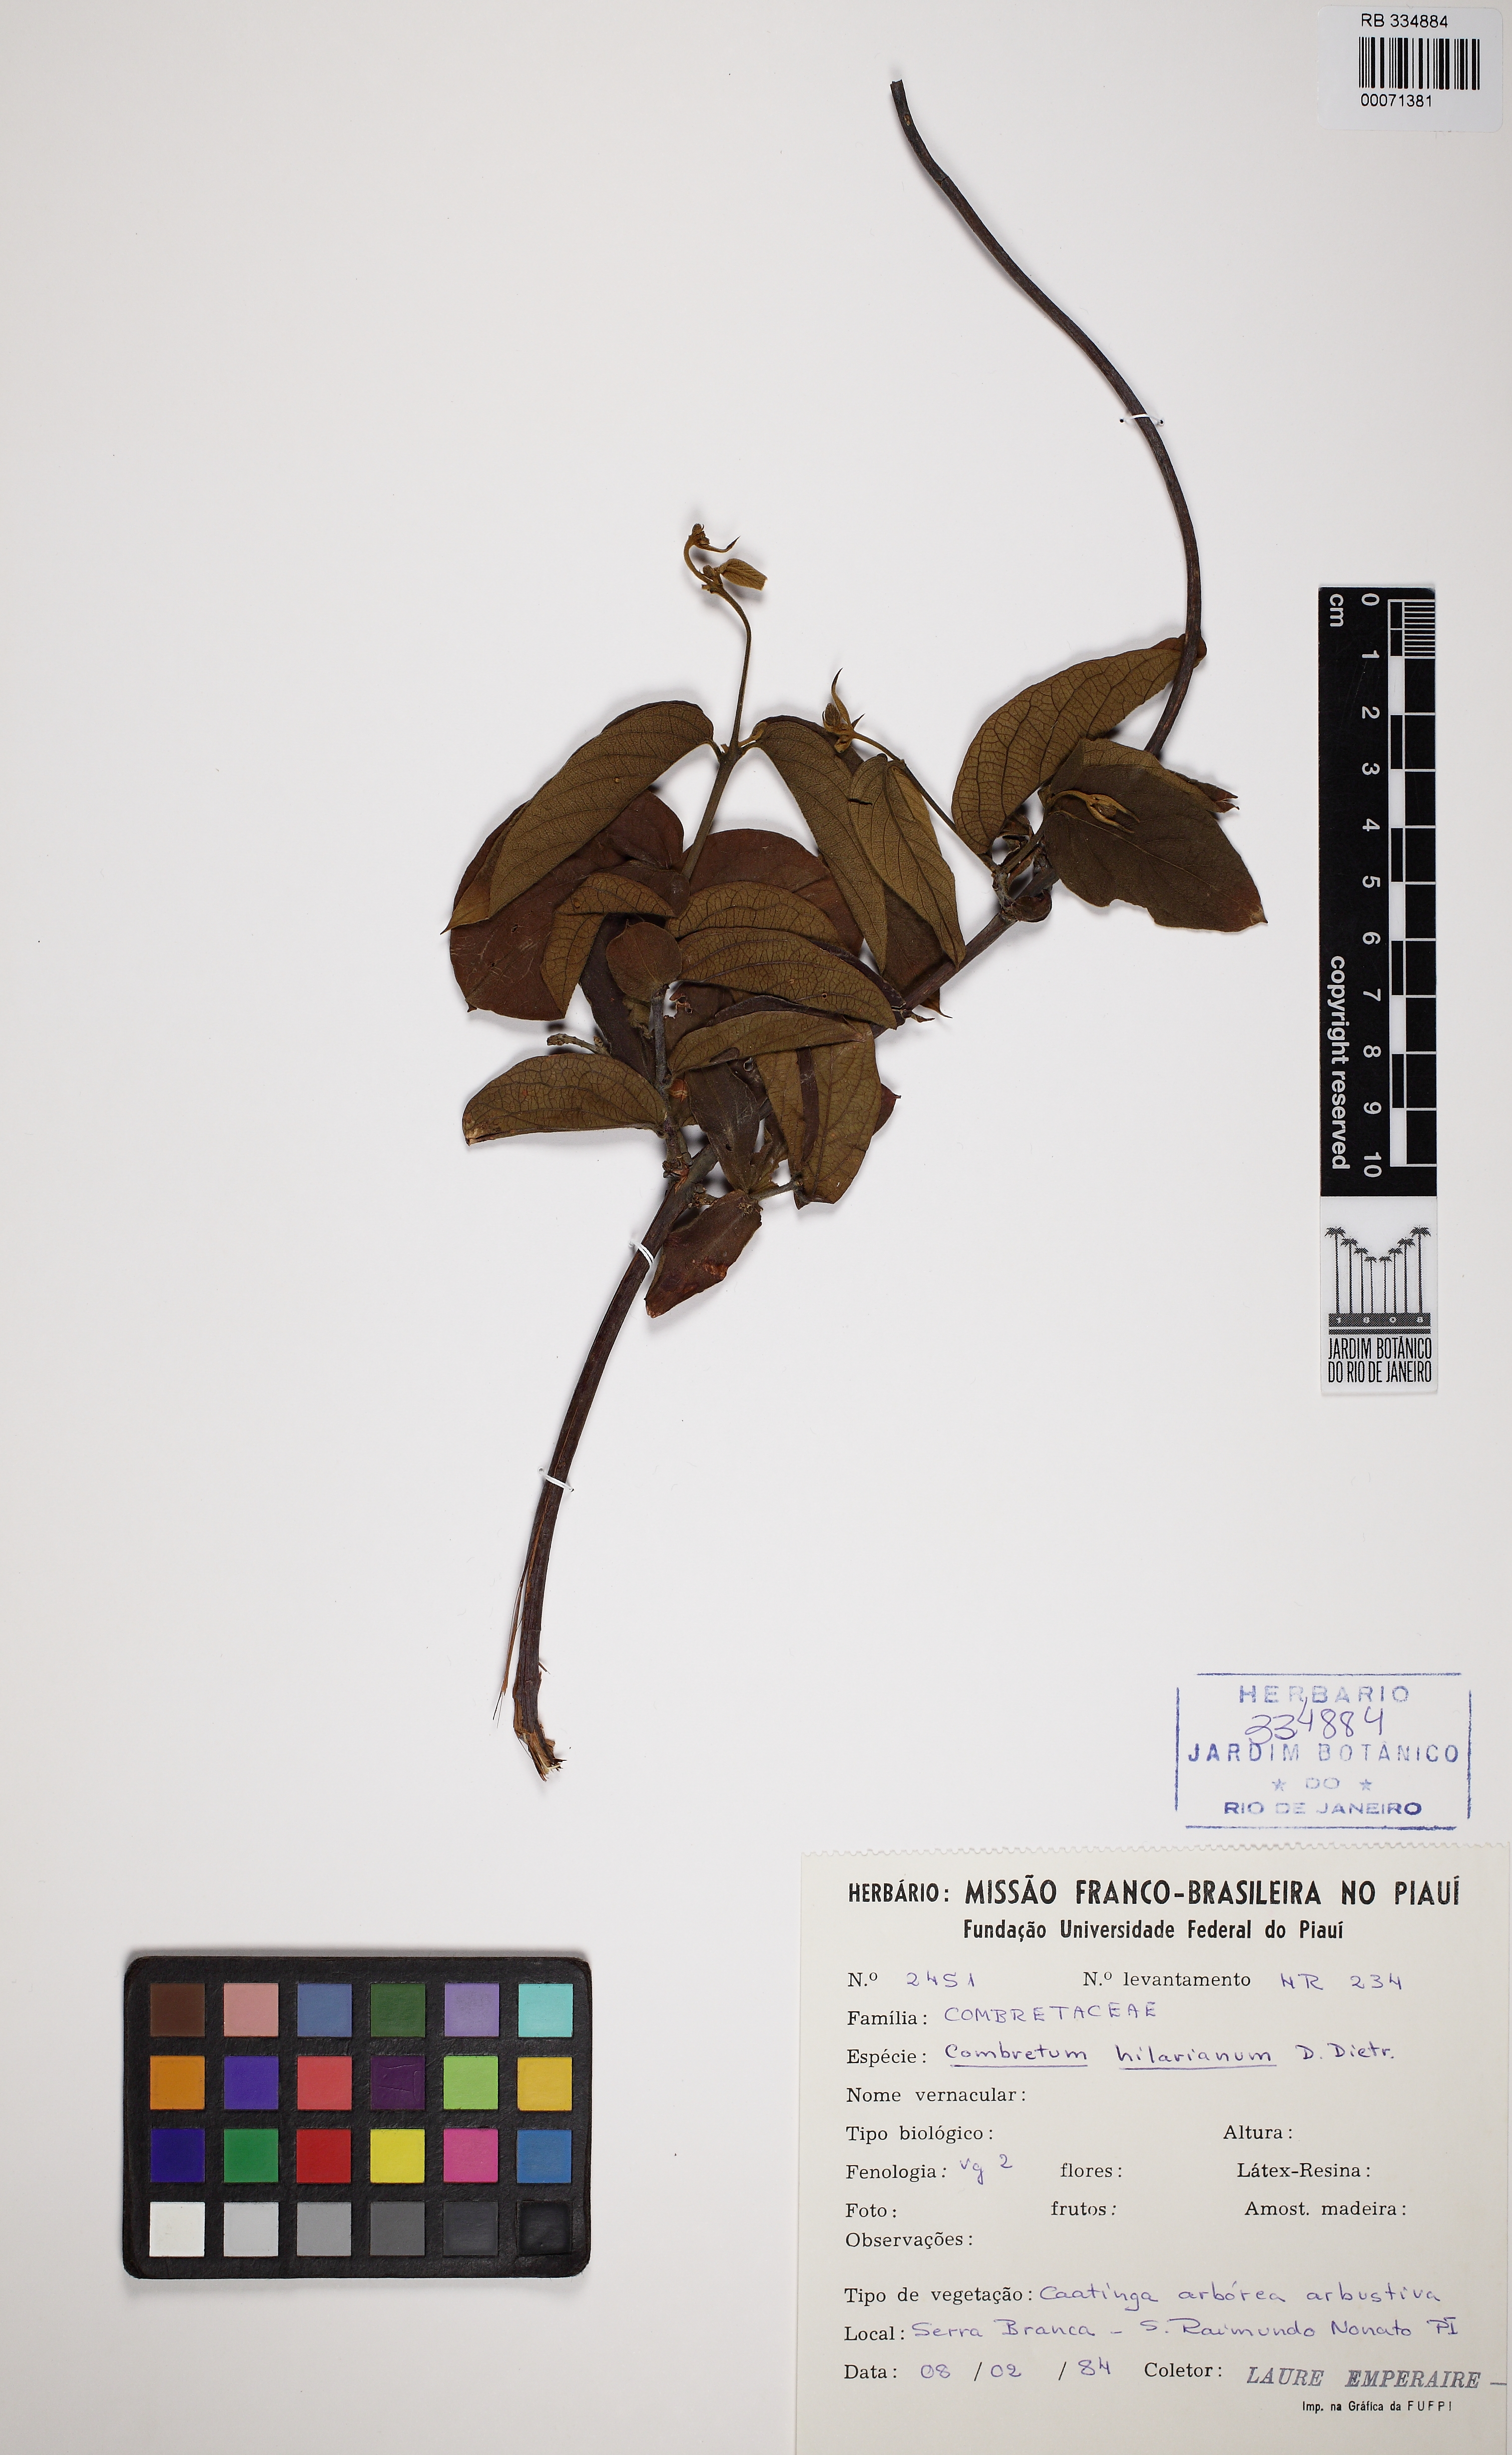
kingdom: Plantae
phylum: Tracheophyta
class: Magnoliopsida
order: Myrtales
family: Combretaceae
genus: Combretum
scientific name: Combretum hilarianum
